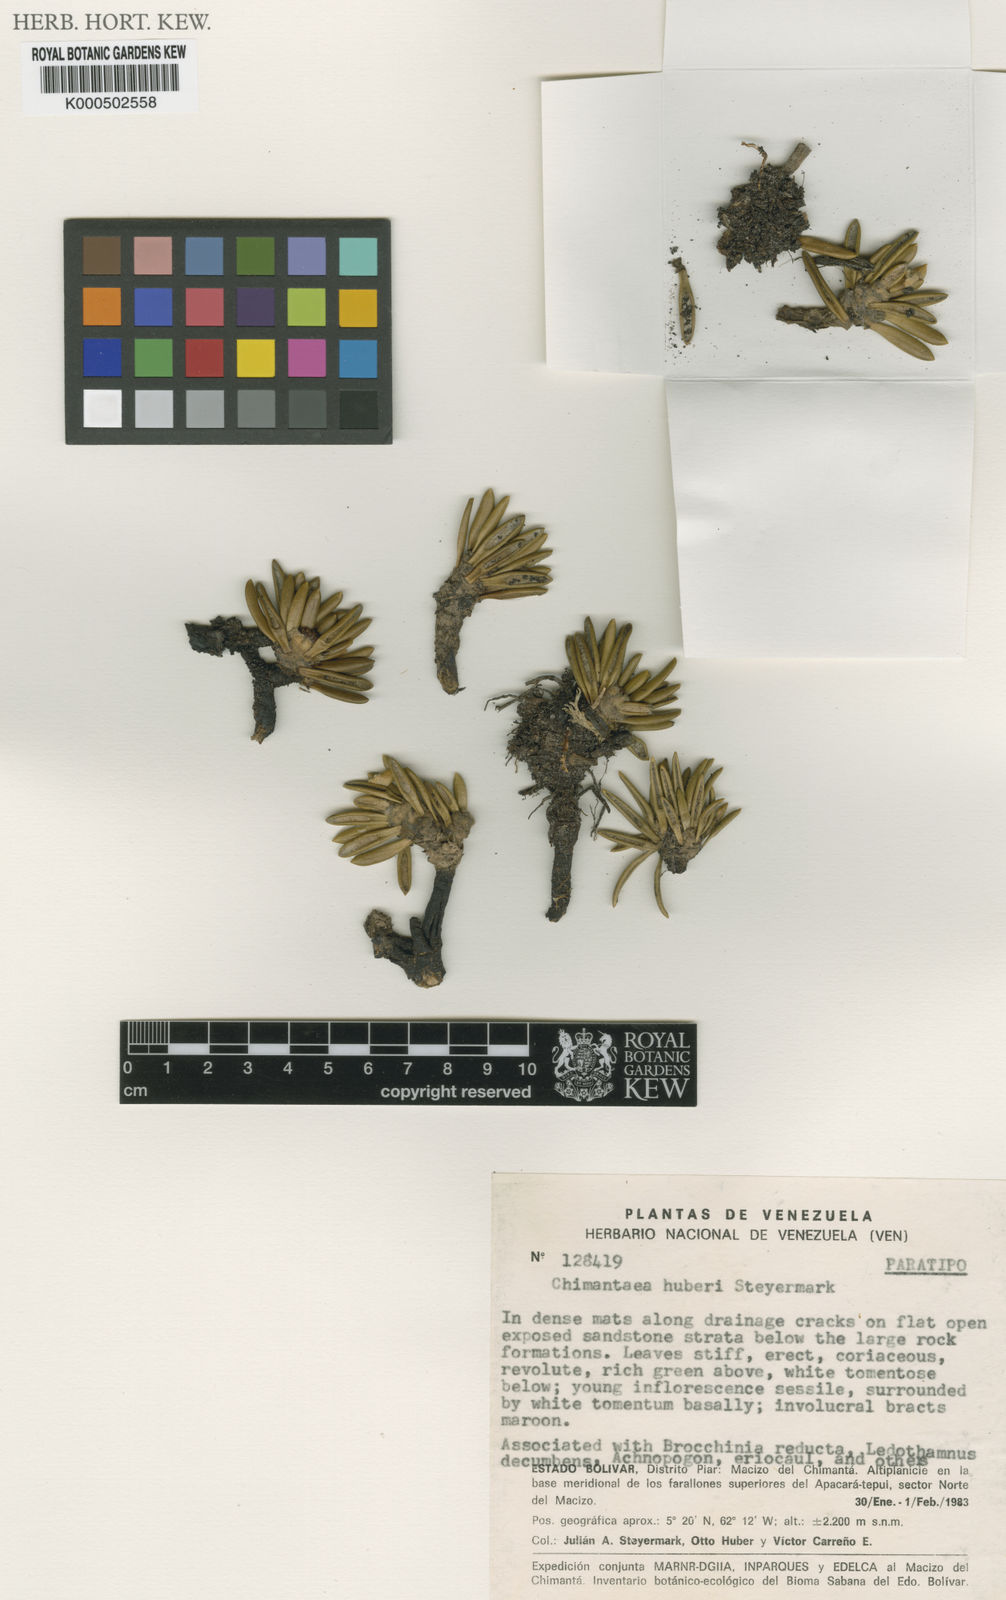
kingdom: Plantae
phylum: Tracheophyta
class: Magnoliopsida
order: Asterales
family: Asteraceae
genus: Chimantaea
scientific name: Chimantaea huberi
